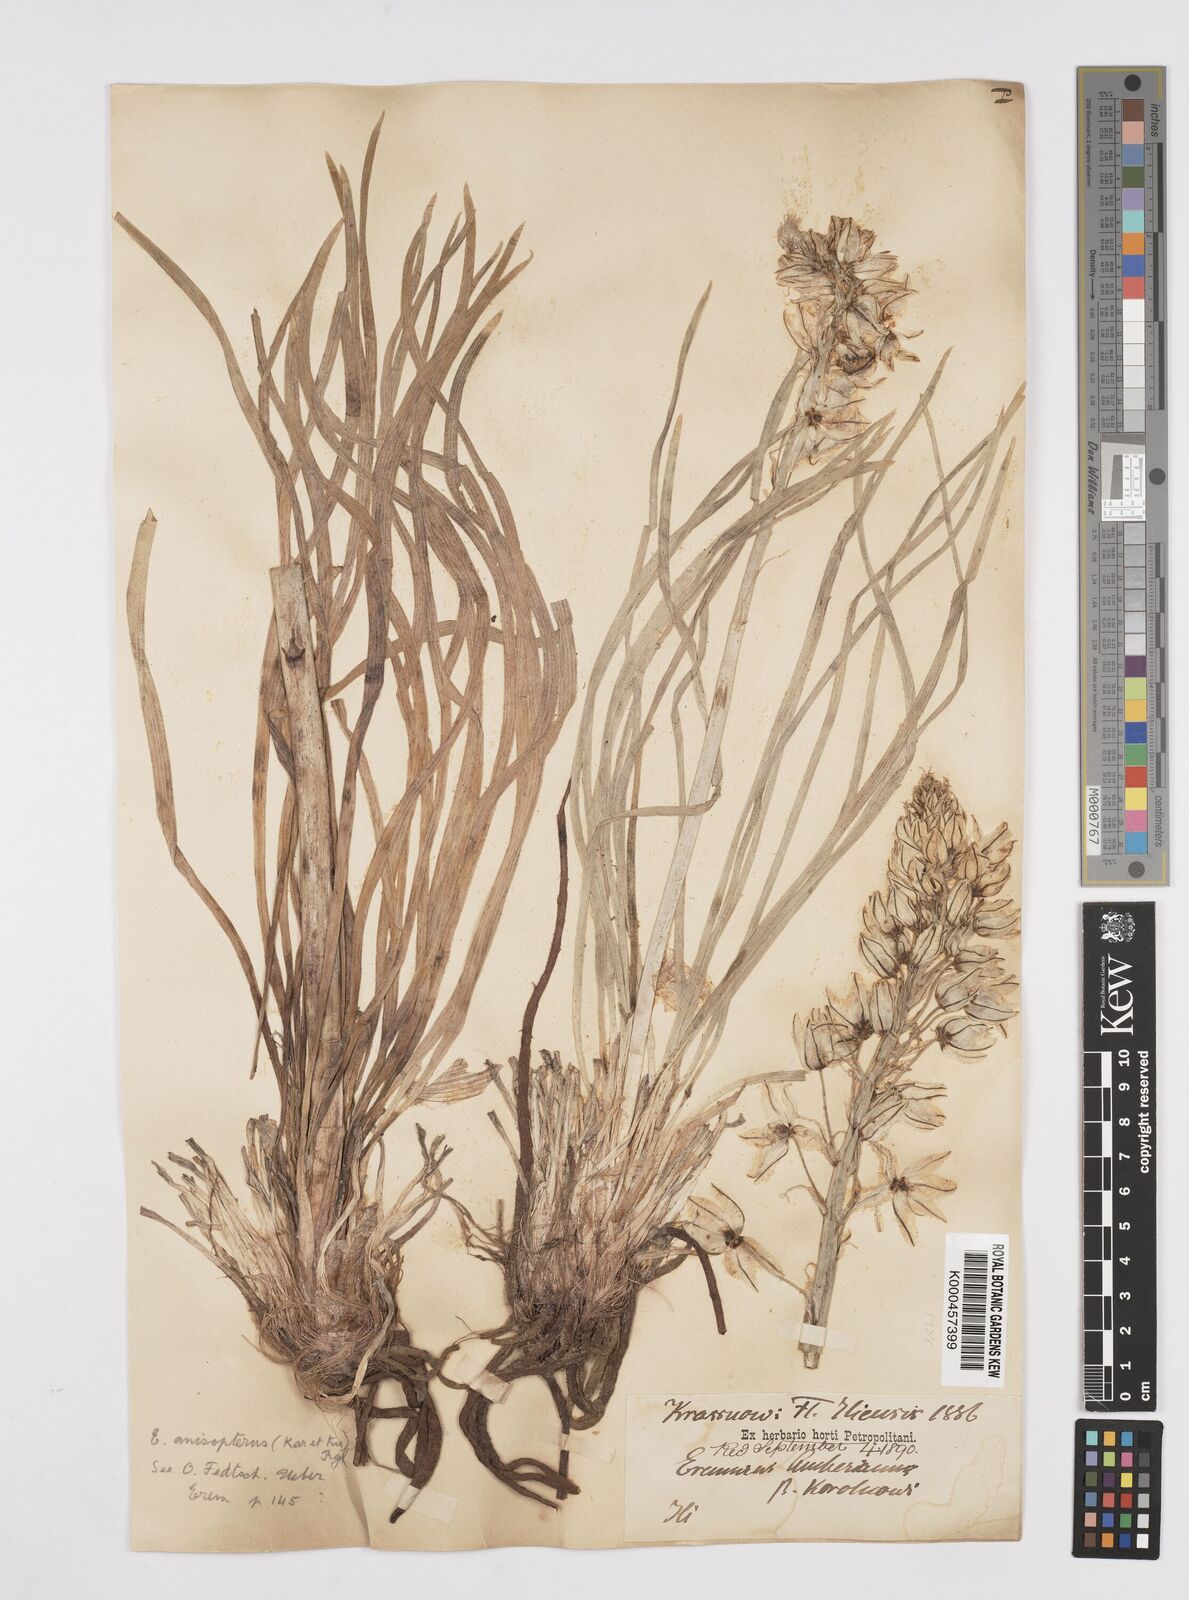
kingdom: Plantae
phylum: Tracheophyta
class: Liliopsida
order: Asparagales
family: Asphodelaceae
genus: Eremurus
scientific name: Eremurus anisopterus
